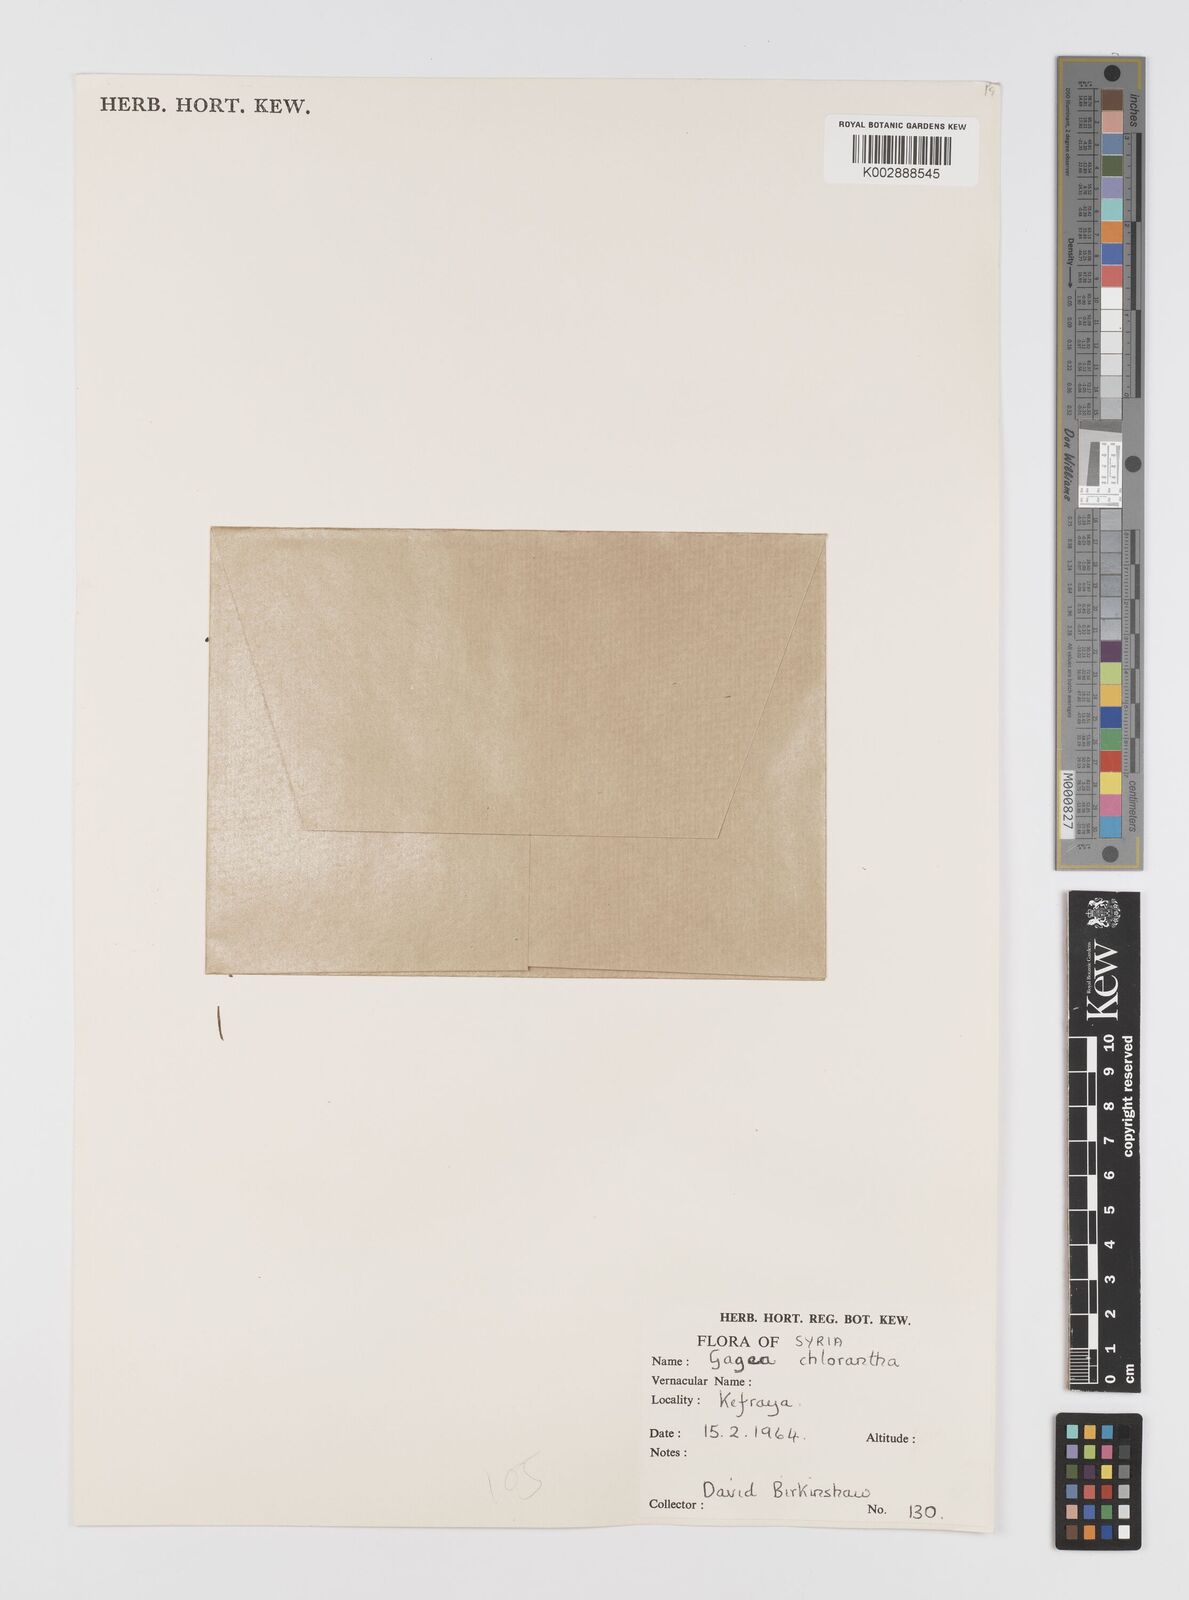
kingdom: Plantae
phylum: Tracheophyta
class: Liliopsida
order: Liliales
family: Liliaceae
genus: Gagea
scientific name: Gagea chlorantha
